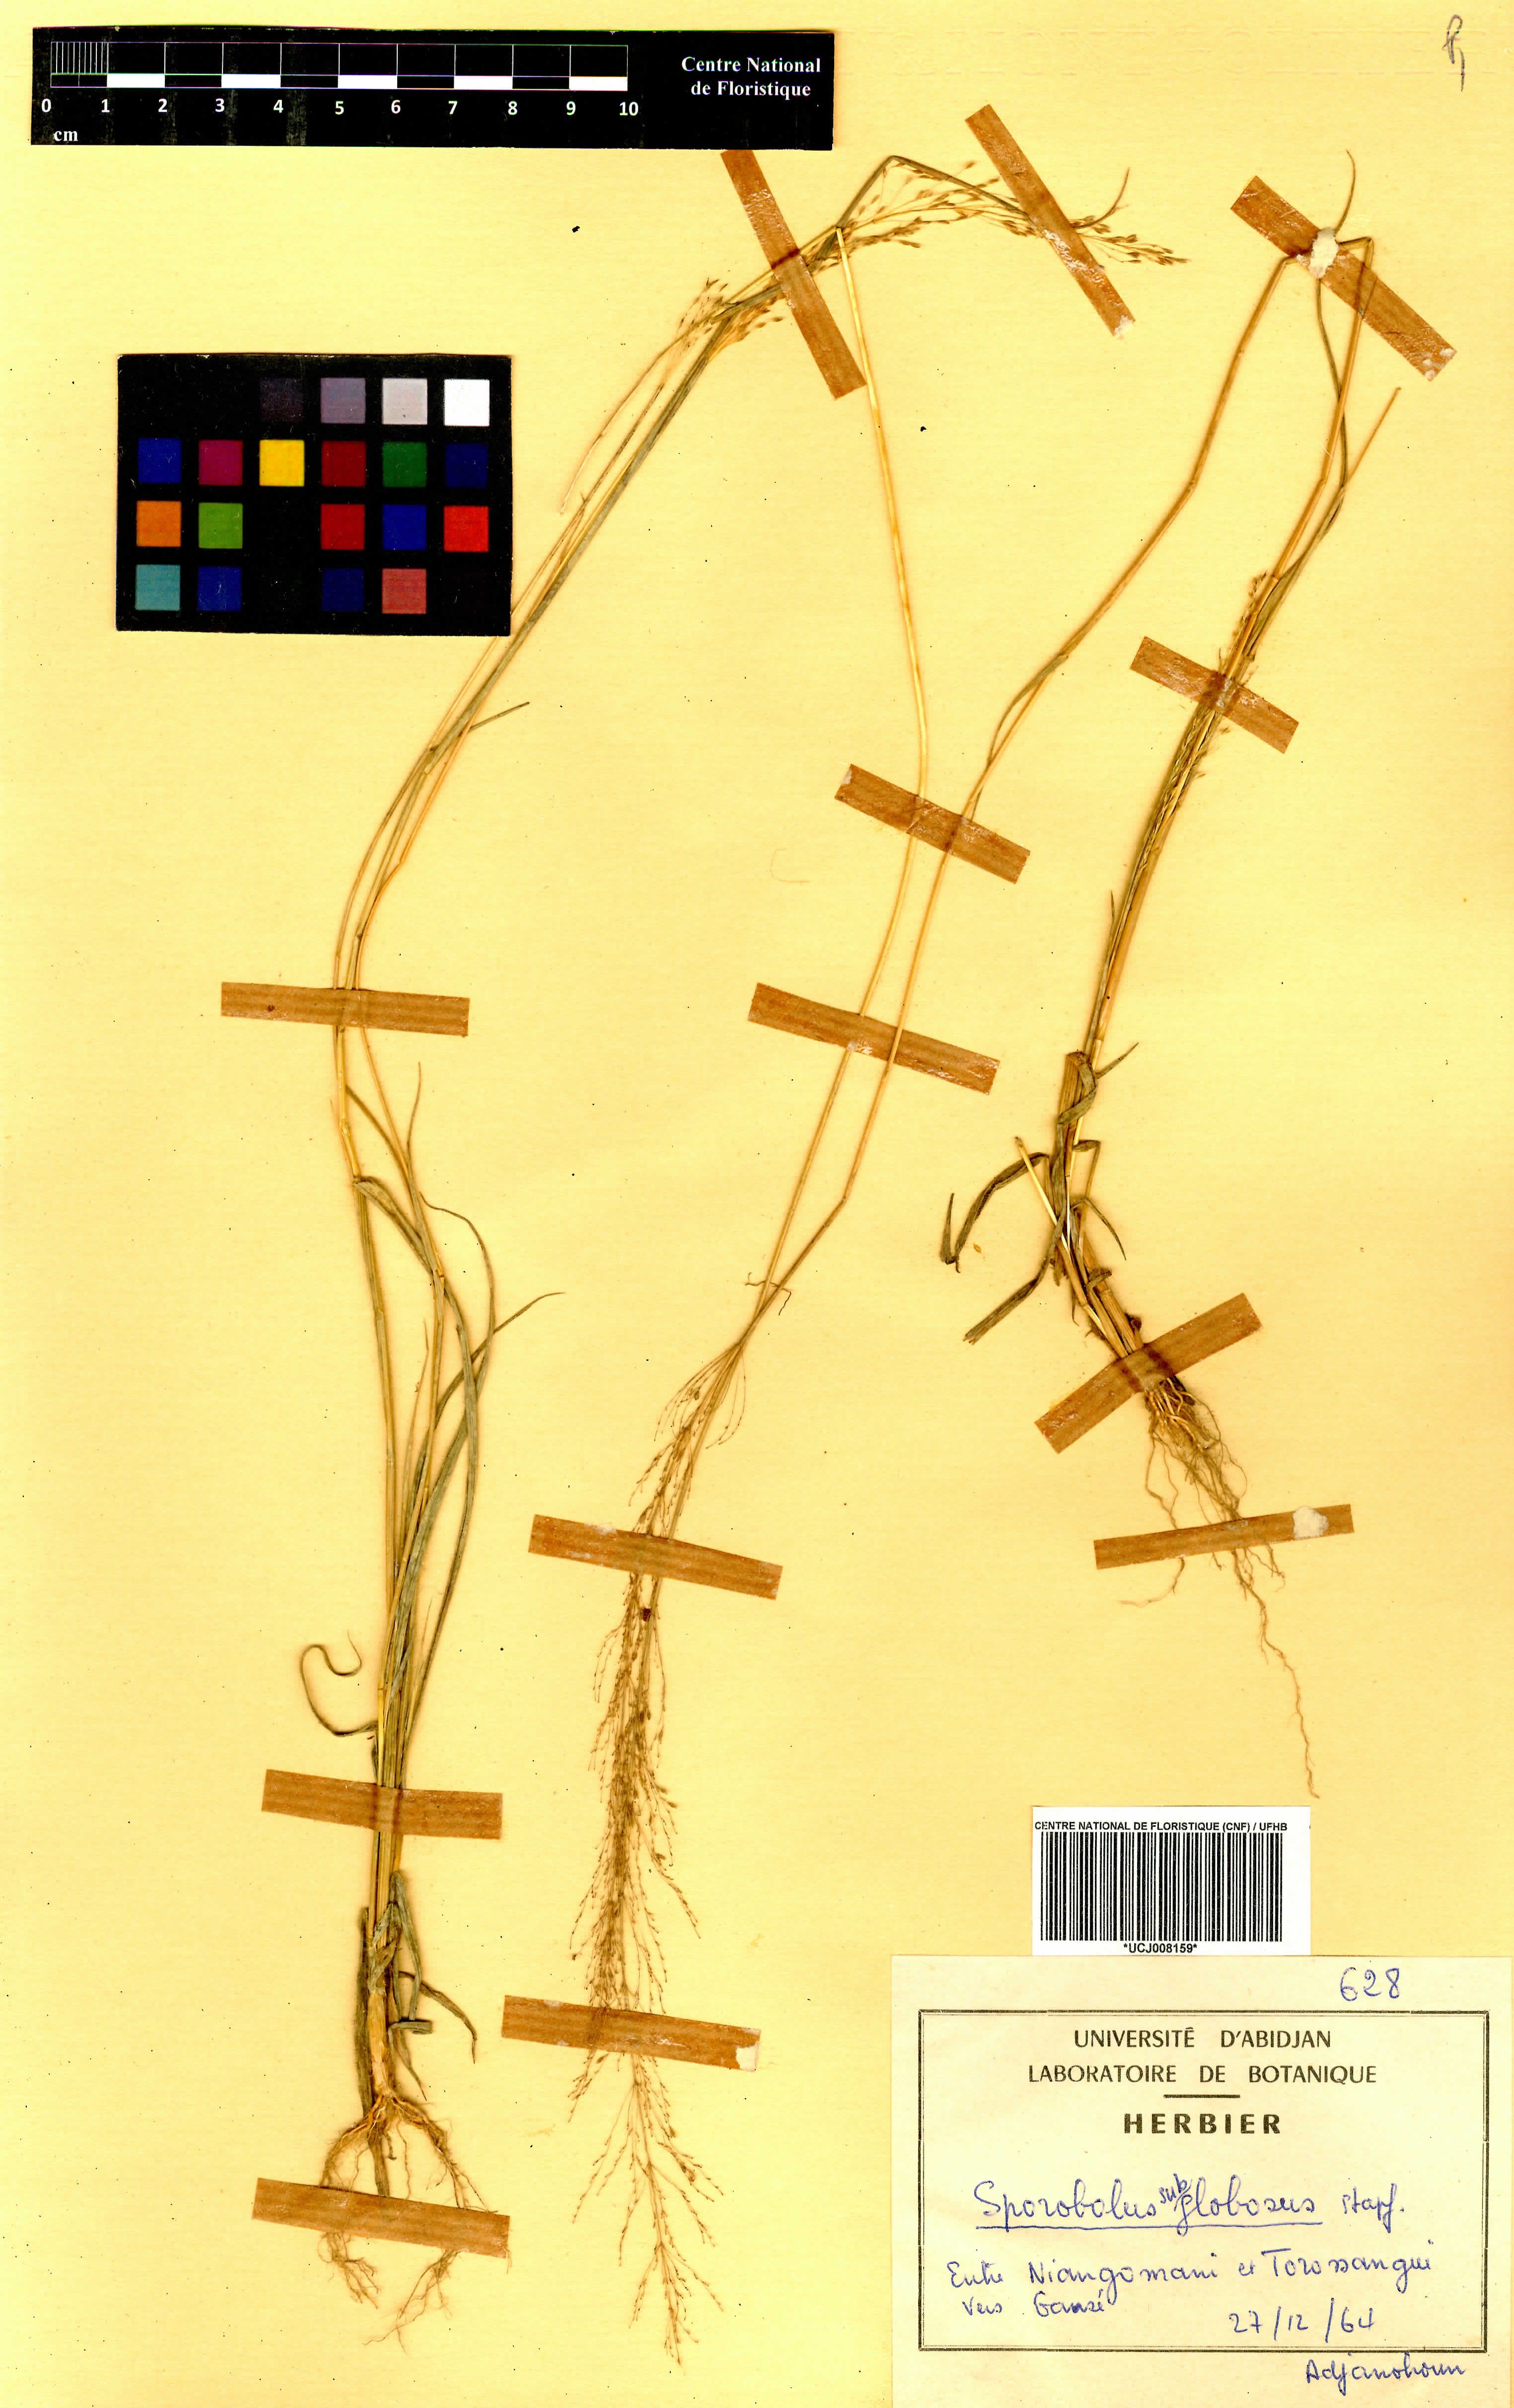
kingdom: Plantae
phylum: Tracheophyta
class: Liliopsida
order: Poales
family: Poaceae
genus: Sporobolus
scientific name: Sporobolus subglobosus
